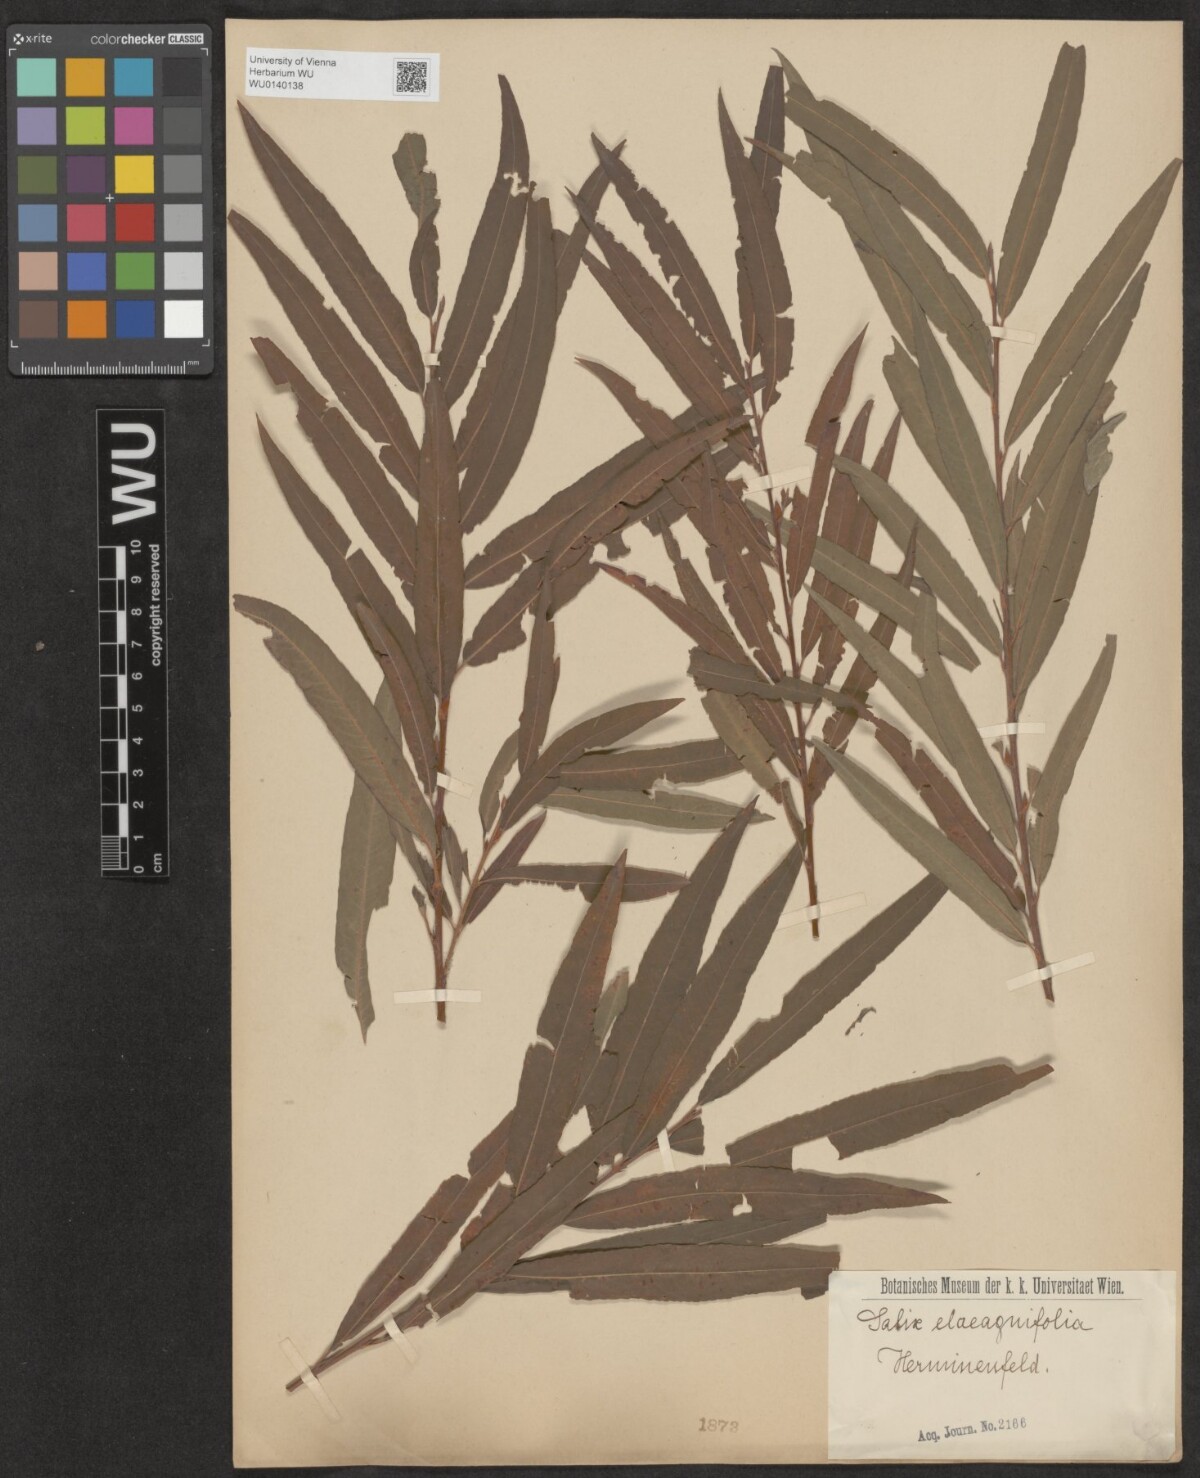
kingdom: Plantae
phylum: Tracheophyta
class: Magnoliopsida
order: Malpighiales
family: Salicaceae
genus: Salix
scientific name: Salix mollissima
